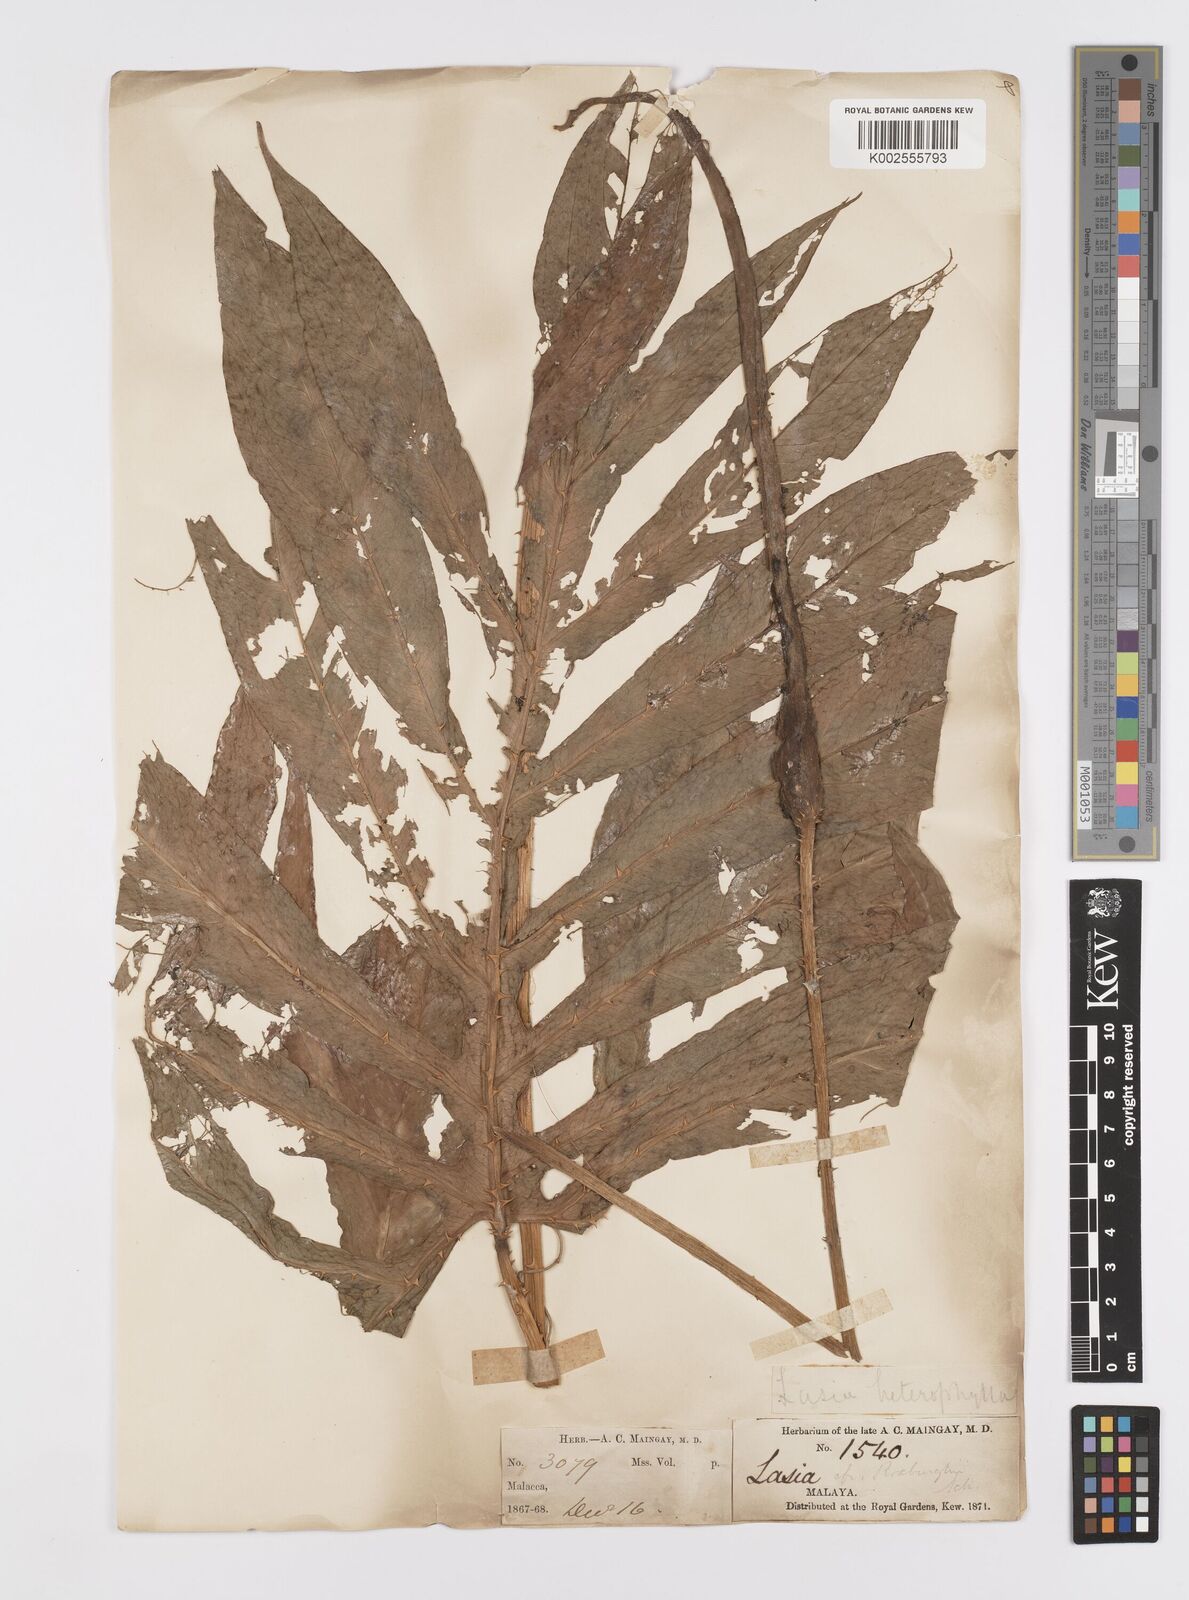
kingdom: Plantae
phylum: Tracheophyta
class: Liliopsida
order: Alismatales
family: Araceae
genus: Lasia
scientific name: Lasia spinosa
